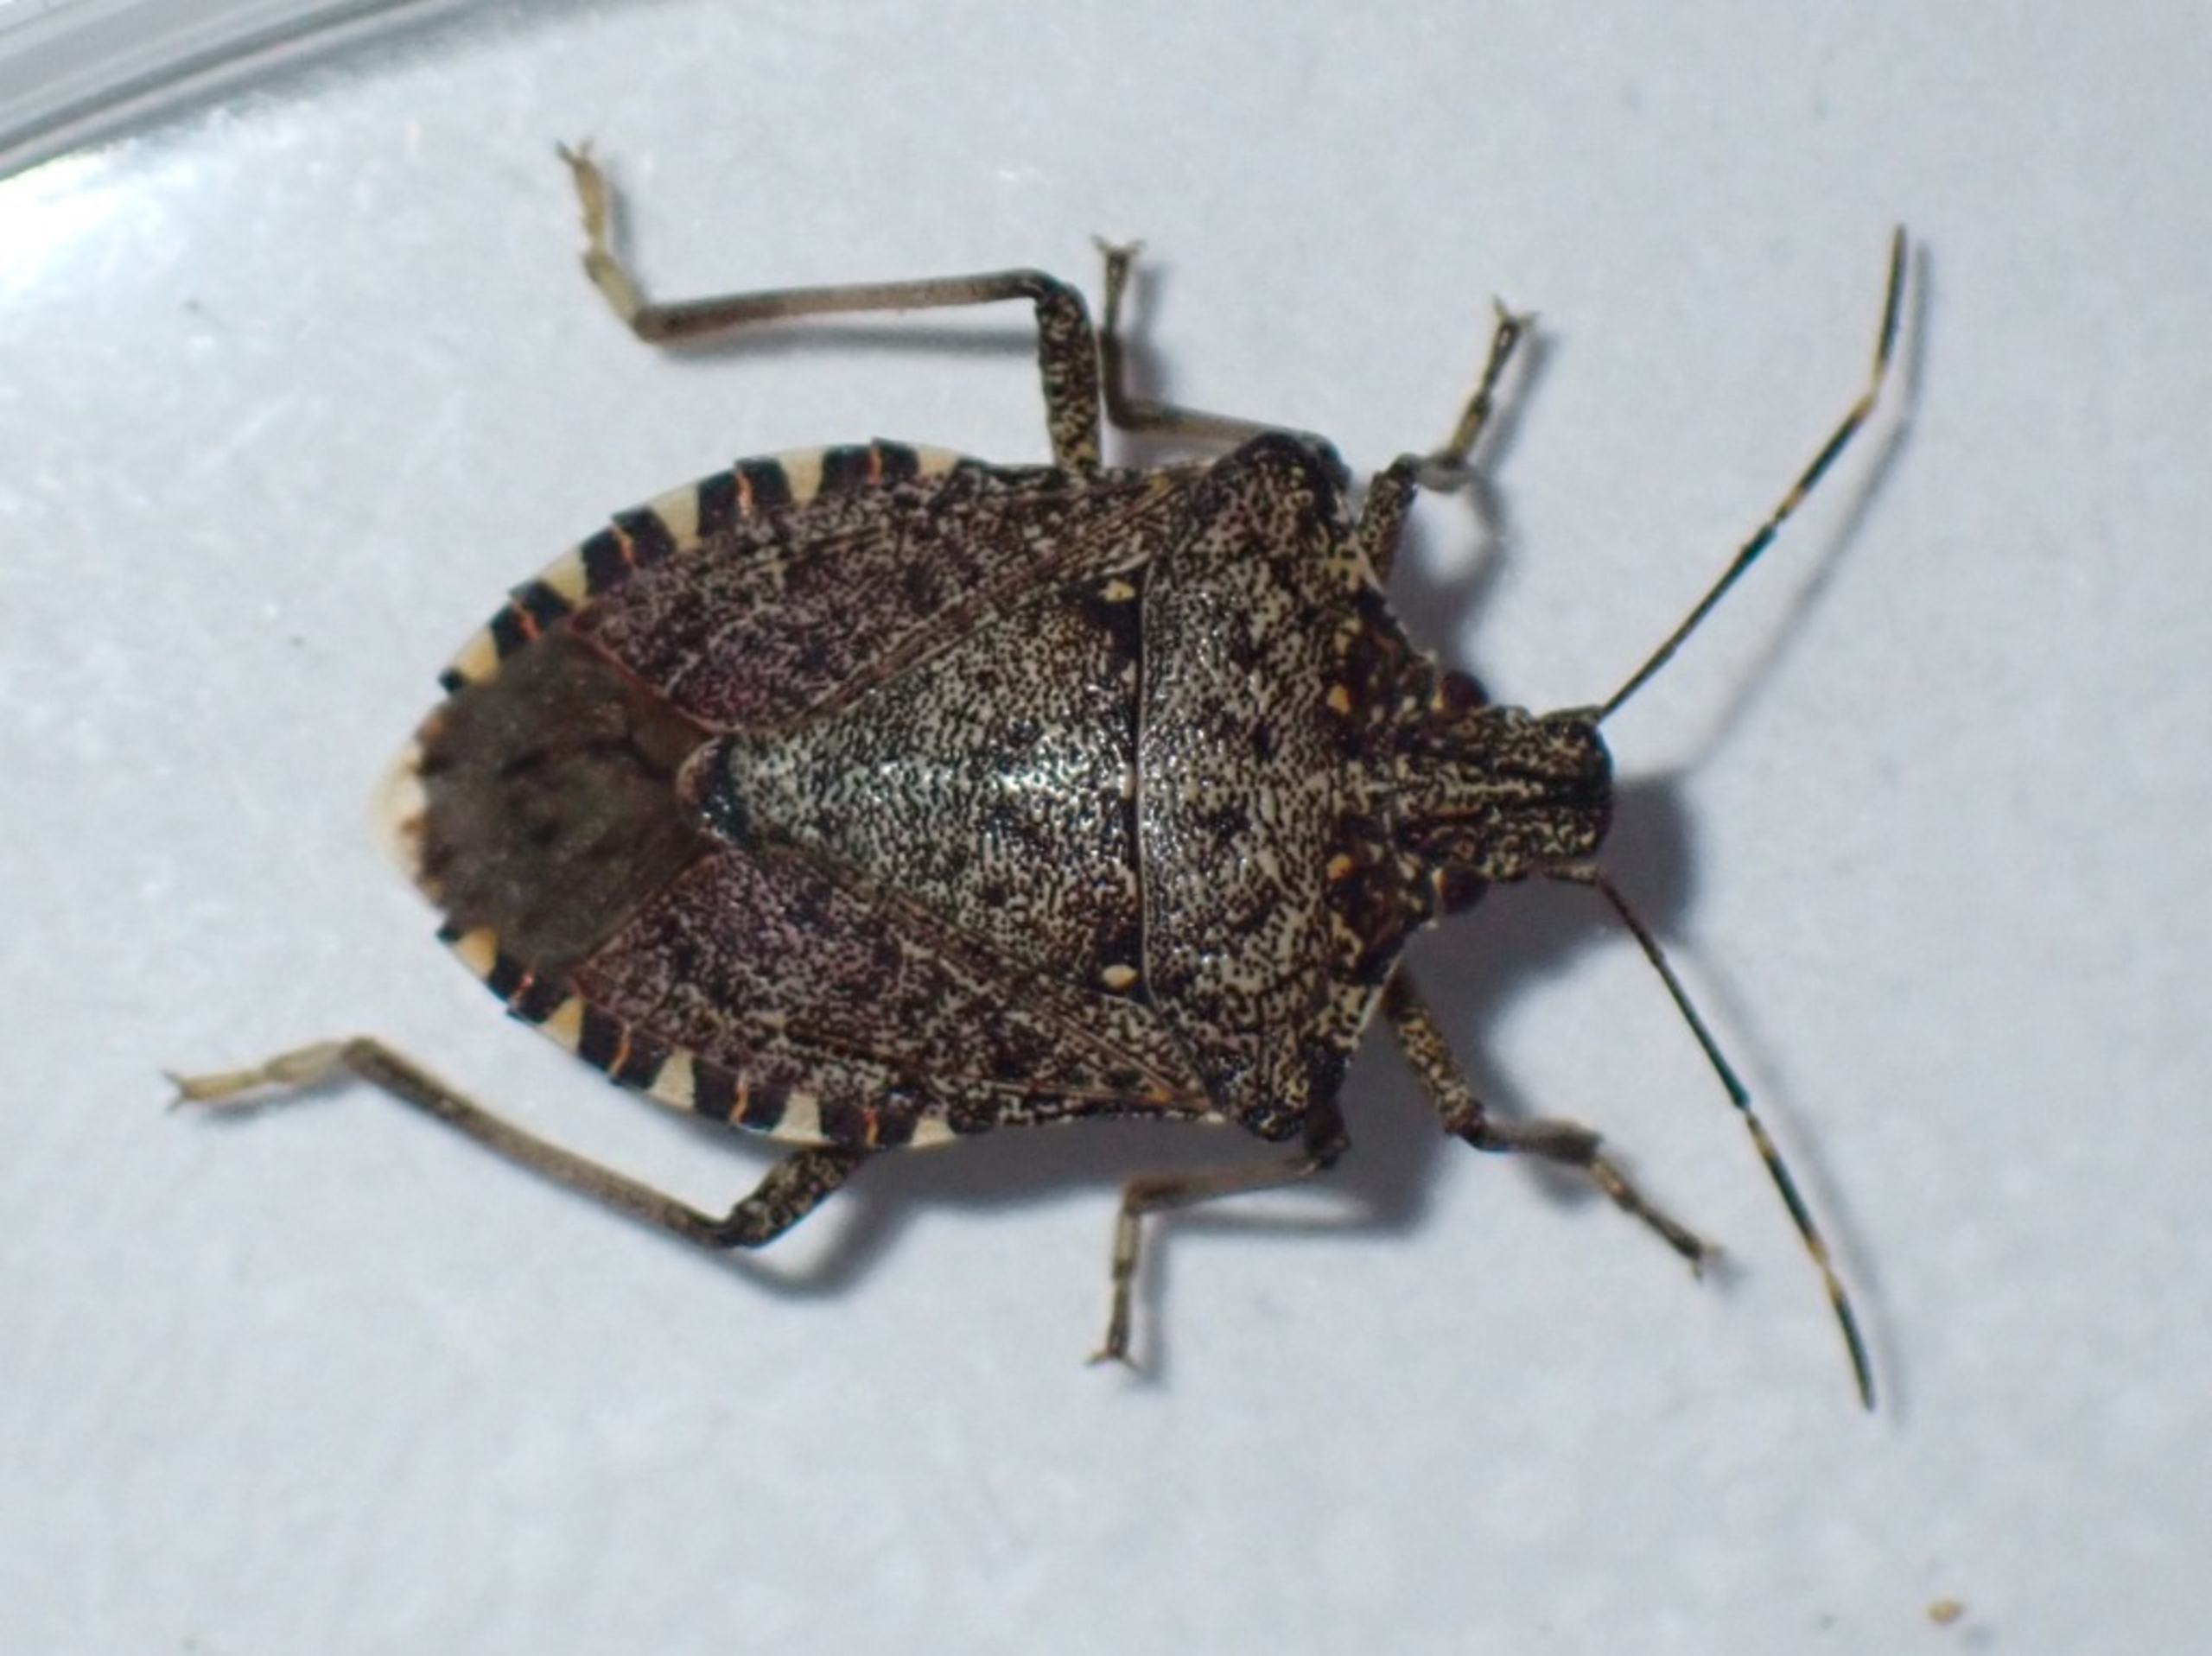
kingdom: Animalia
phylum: Arthropoda
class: Insecta
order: Hemiptera
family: Pentatomidae
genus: Halyomorpha
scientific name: Halyomorpha halys
